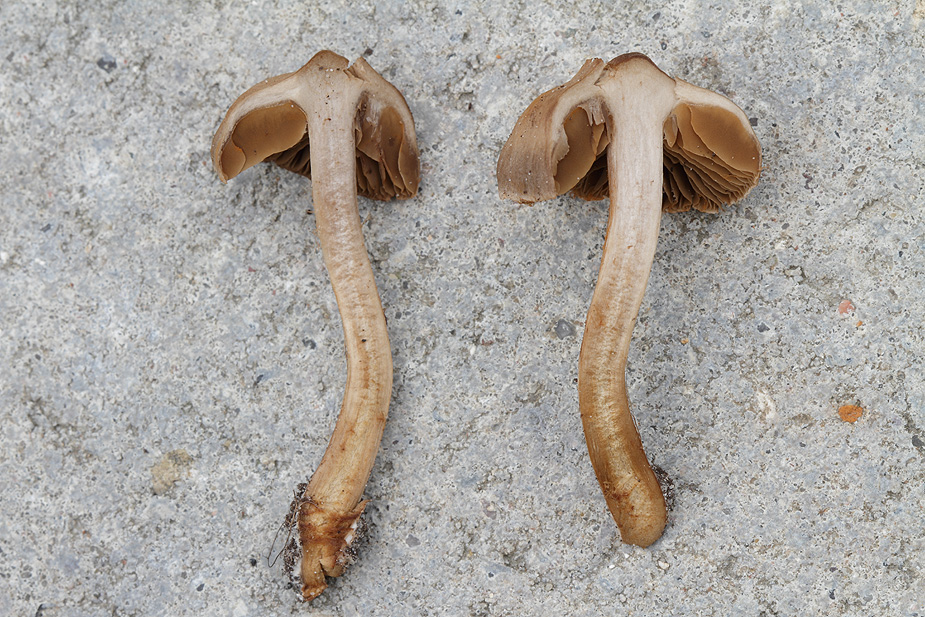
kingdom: Fungi
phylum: Basidiomycota
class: Agaricomycetes
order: Agaricales
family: Cortinariaceae
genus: Cortinarius
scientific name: Cortinarius alboadustus
